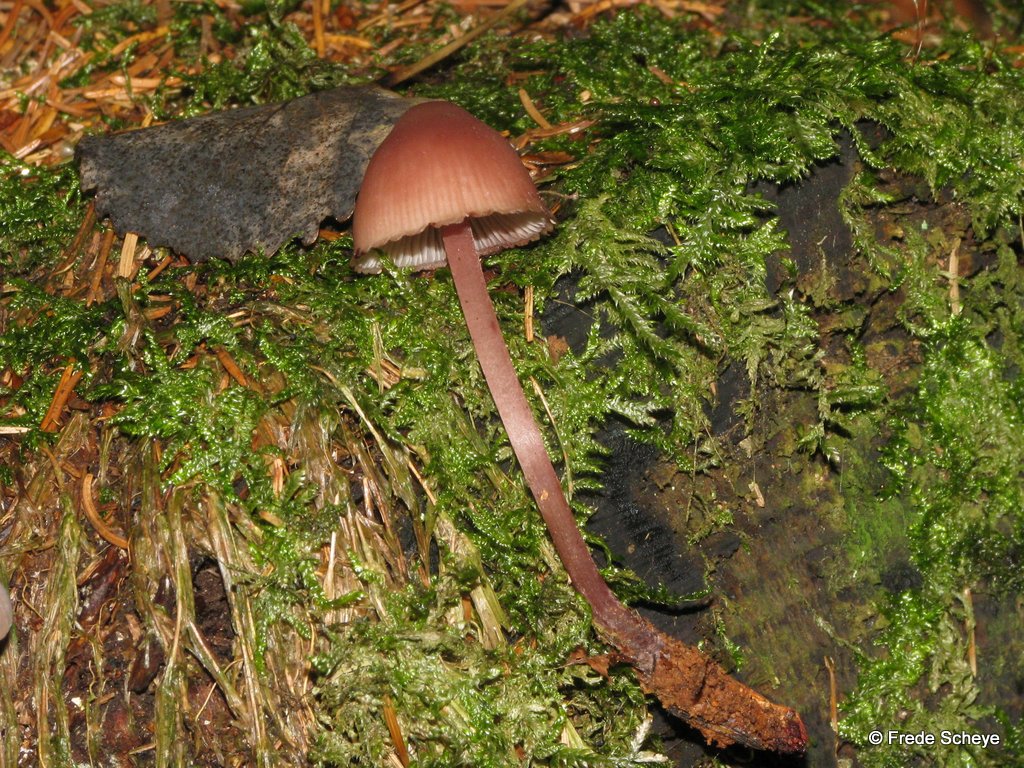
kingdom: Fungi
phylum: Basidiomycota
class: Agaricomycetes
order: Agaricales
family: Mycenaceae
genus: Mycena
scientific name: Mycena haematopus
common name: blødende huesvamp
